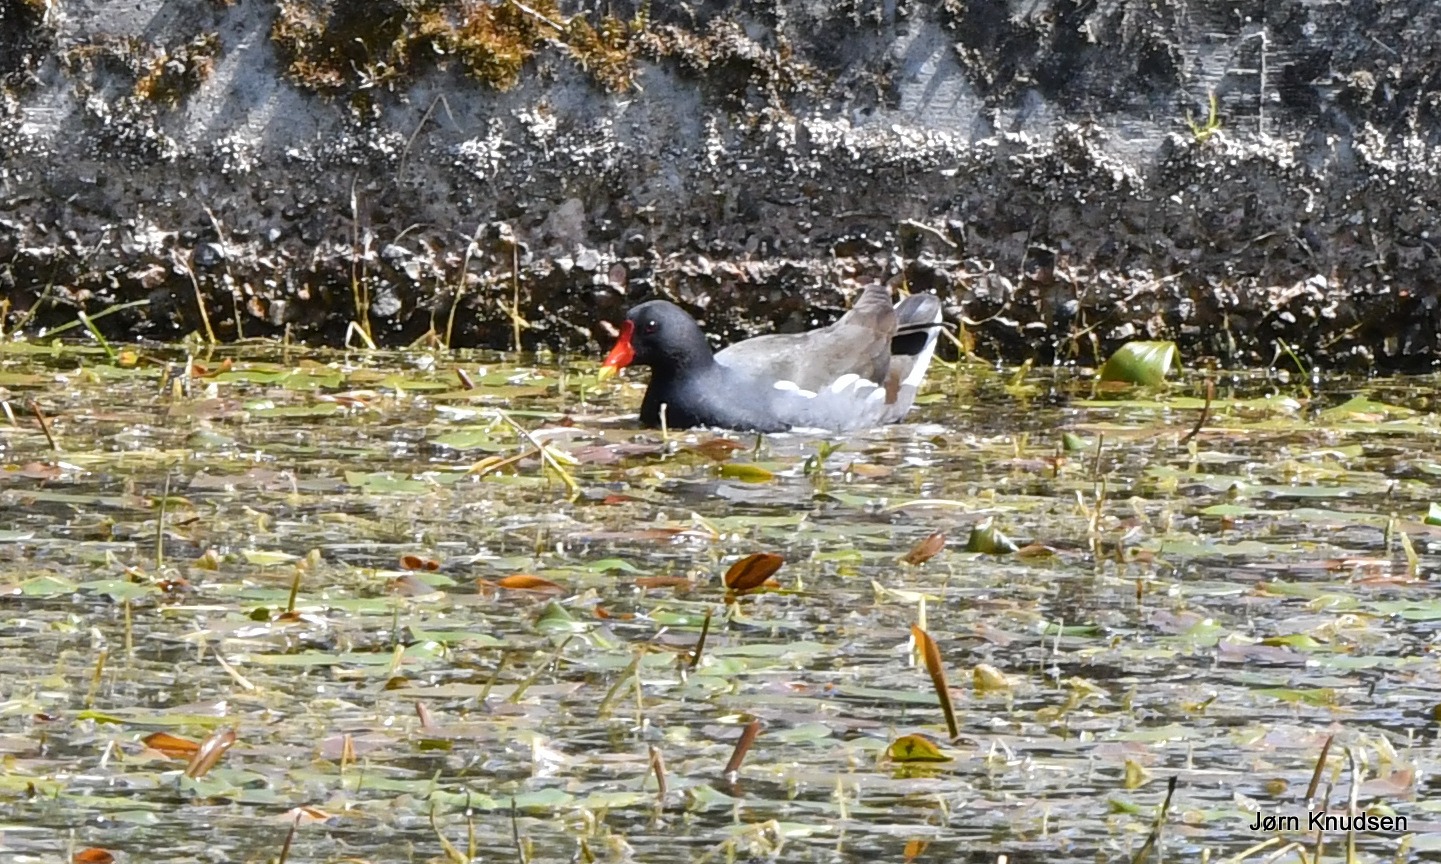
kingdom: Animalia
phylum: Chordata
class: Aves
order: Gruiformes
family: Rallidae
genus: Gallinula
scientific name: Gallinula chloropus
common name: Grønbenet rørhøne
